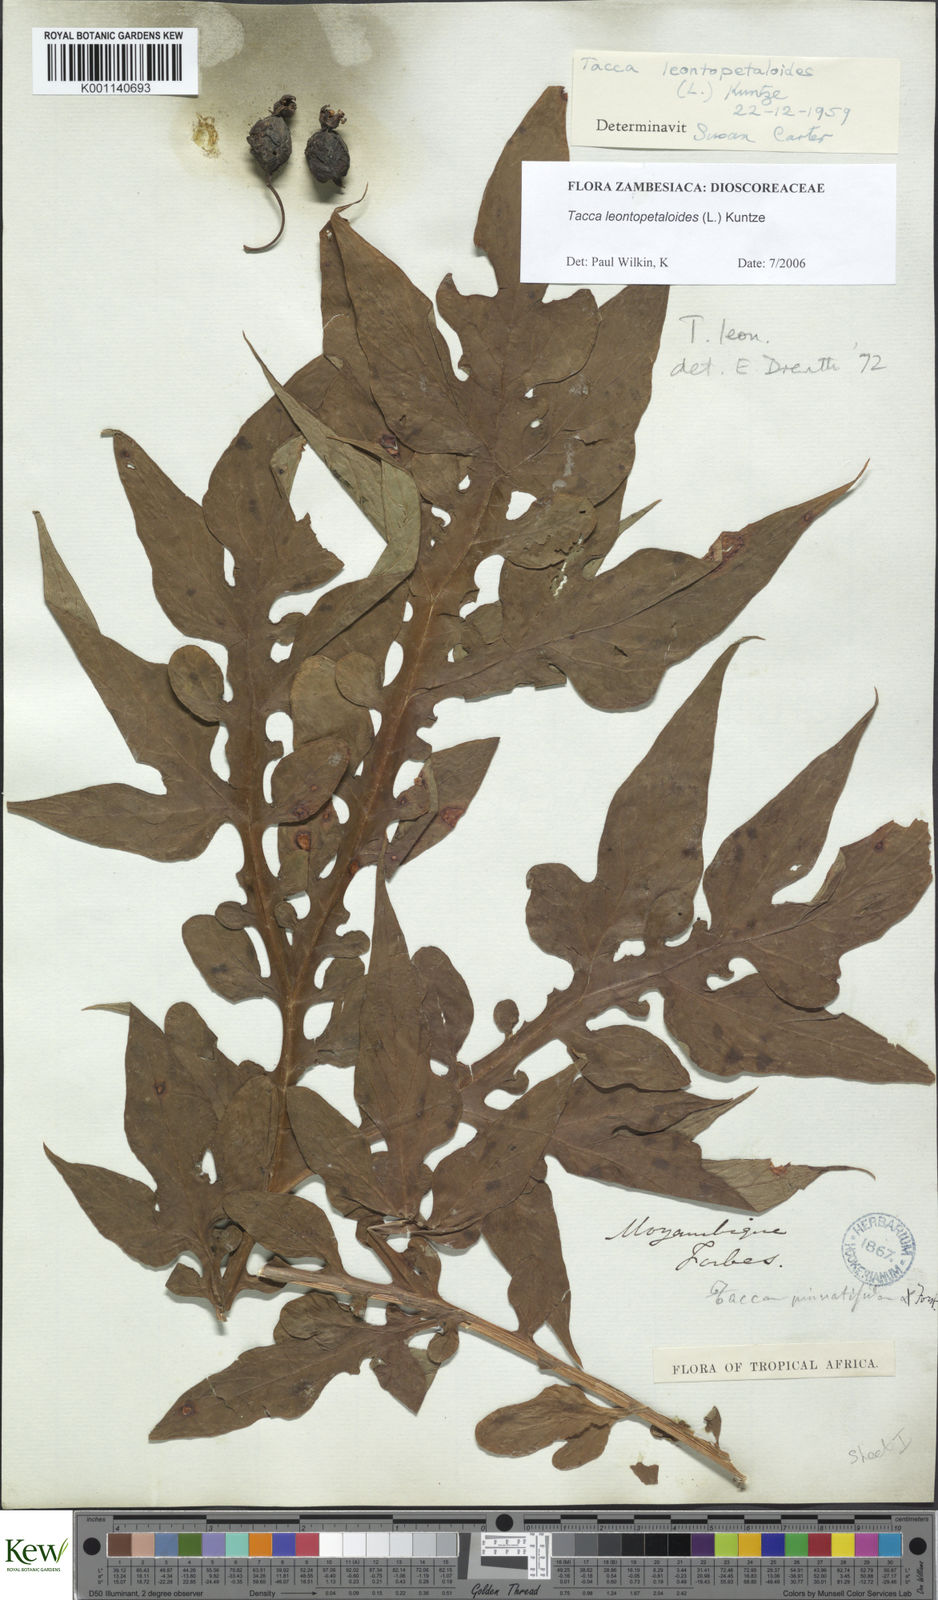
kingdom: Plantae
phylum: Tracheophyta
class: Liliopsida
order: Dioscoreales
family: Dioscoreaceae
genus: Tacca
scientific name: Tacca leontopetaloides
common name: Arrowroot
